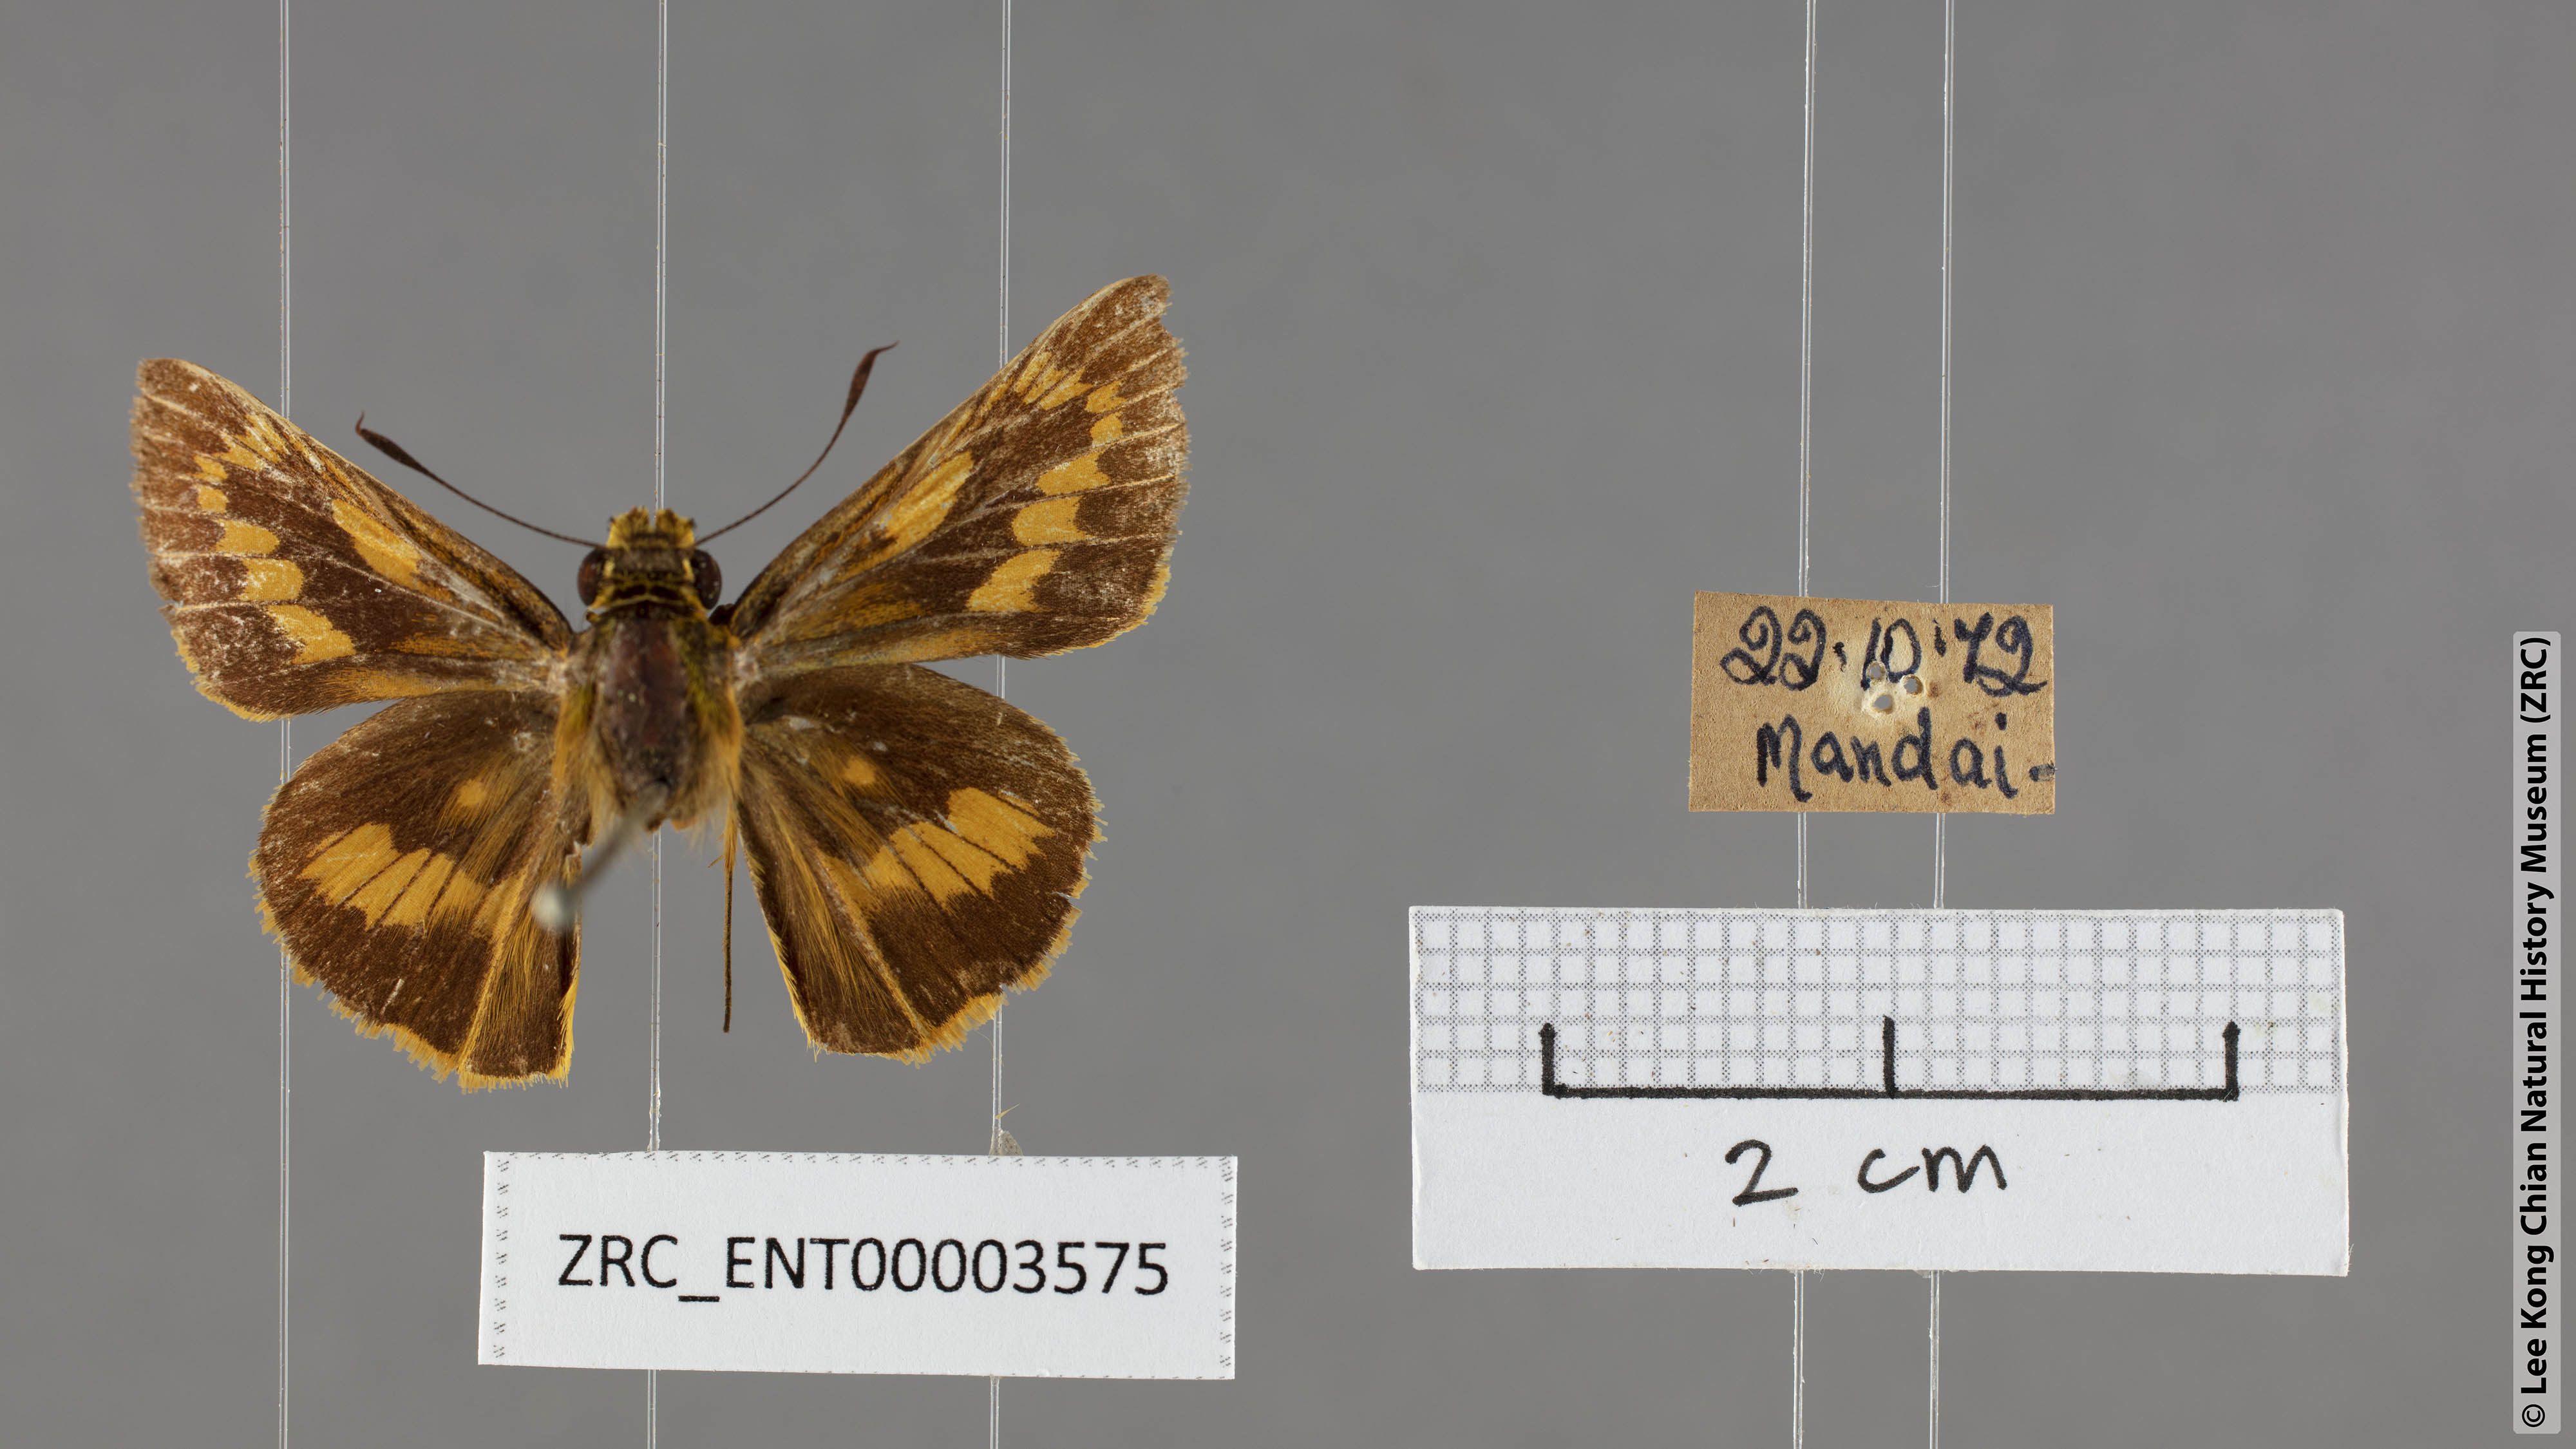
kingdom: Animalia
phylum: Arthropoda
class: Insecta
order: Lepidoptera
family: Hesperiidae
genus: Telicota
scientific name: Telicota augias
